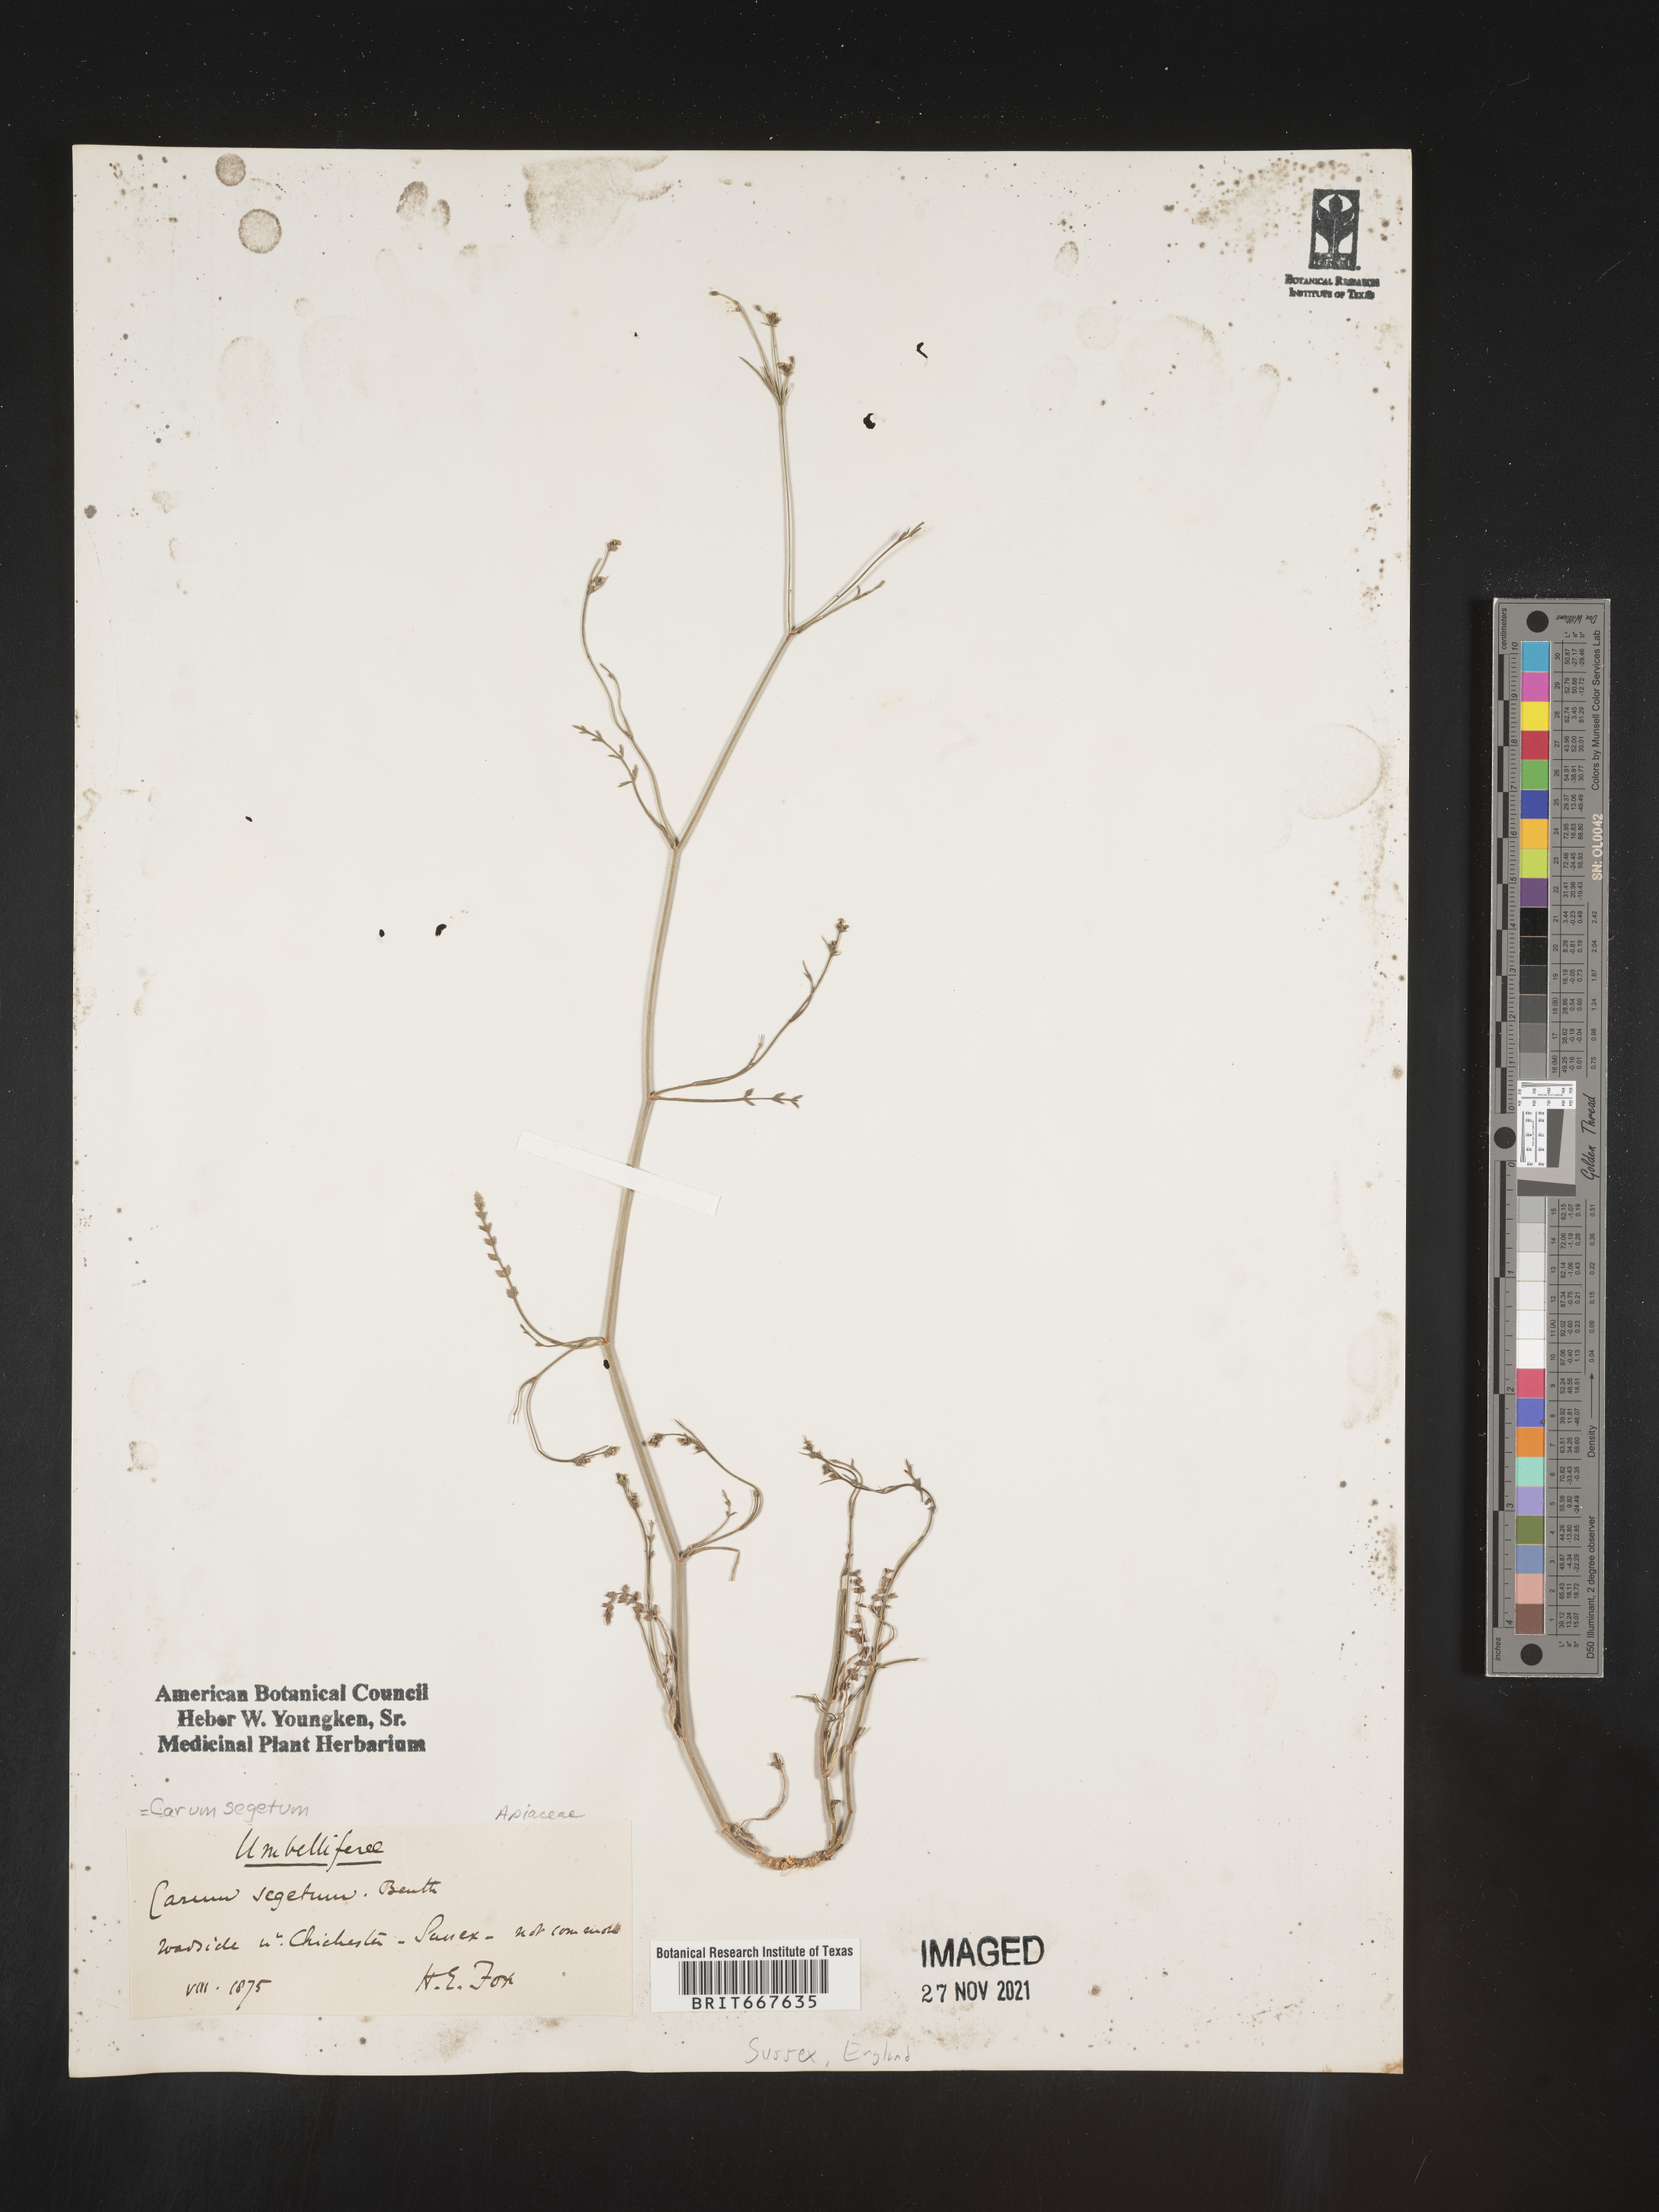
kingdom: Plantae
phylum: Tracheophyta
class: Magnoliopsida
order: Apiales
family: Apiaceae
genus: Carum
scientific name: Carum
